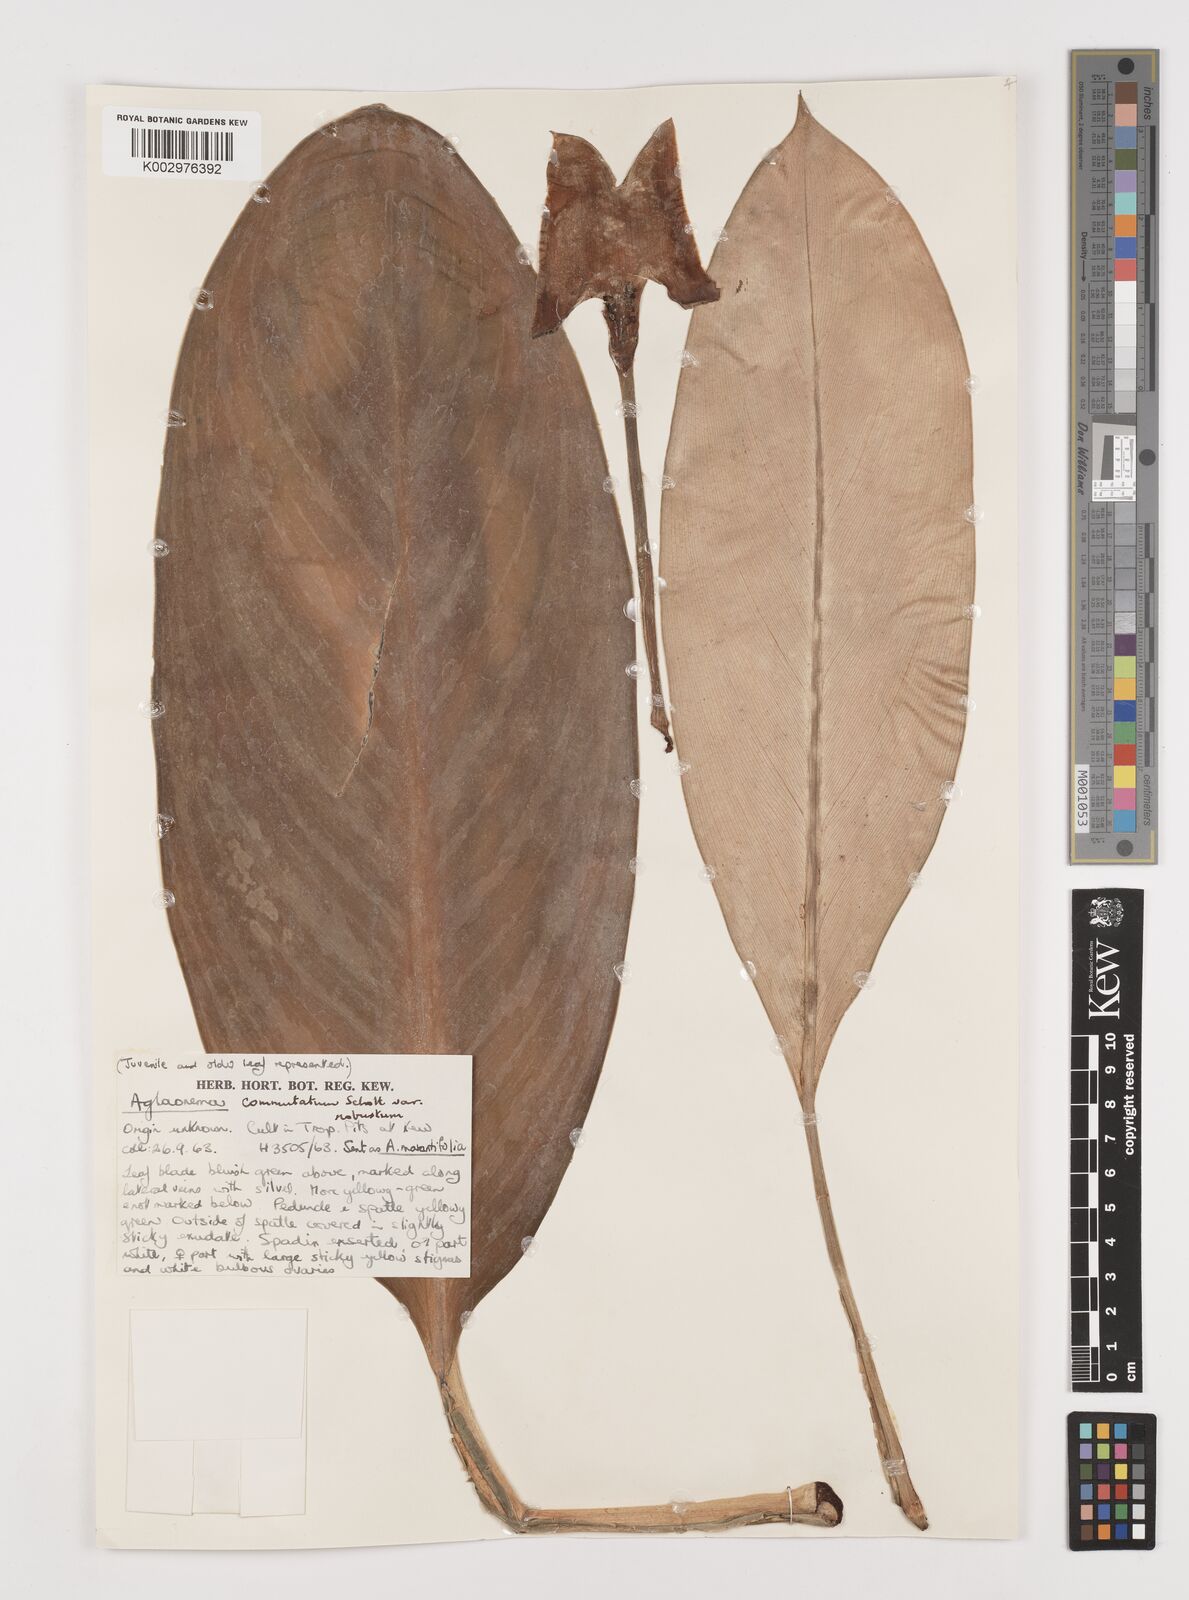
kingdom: Plantae
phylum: Tracheophyta
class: Liliopsida
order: Alismatales
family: Araceae
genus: Aglaonema
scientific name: Aglaonema commutatum
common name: Philippine evergreen
